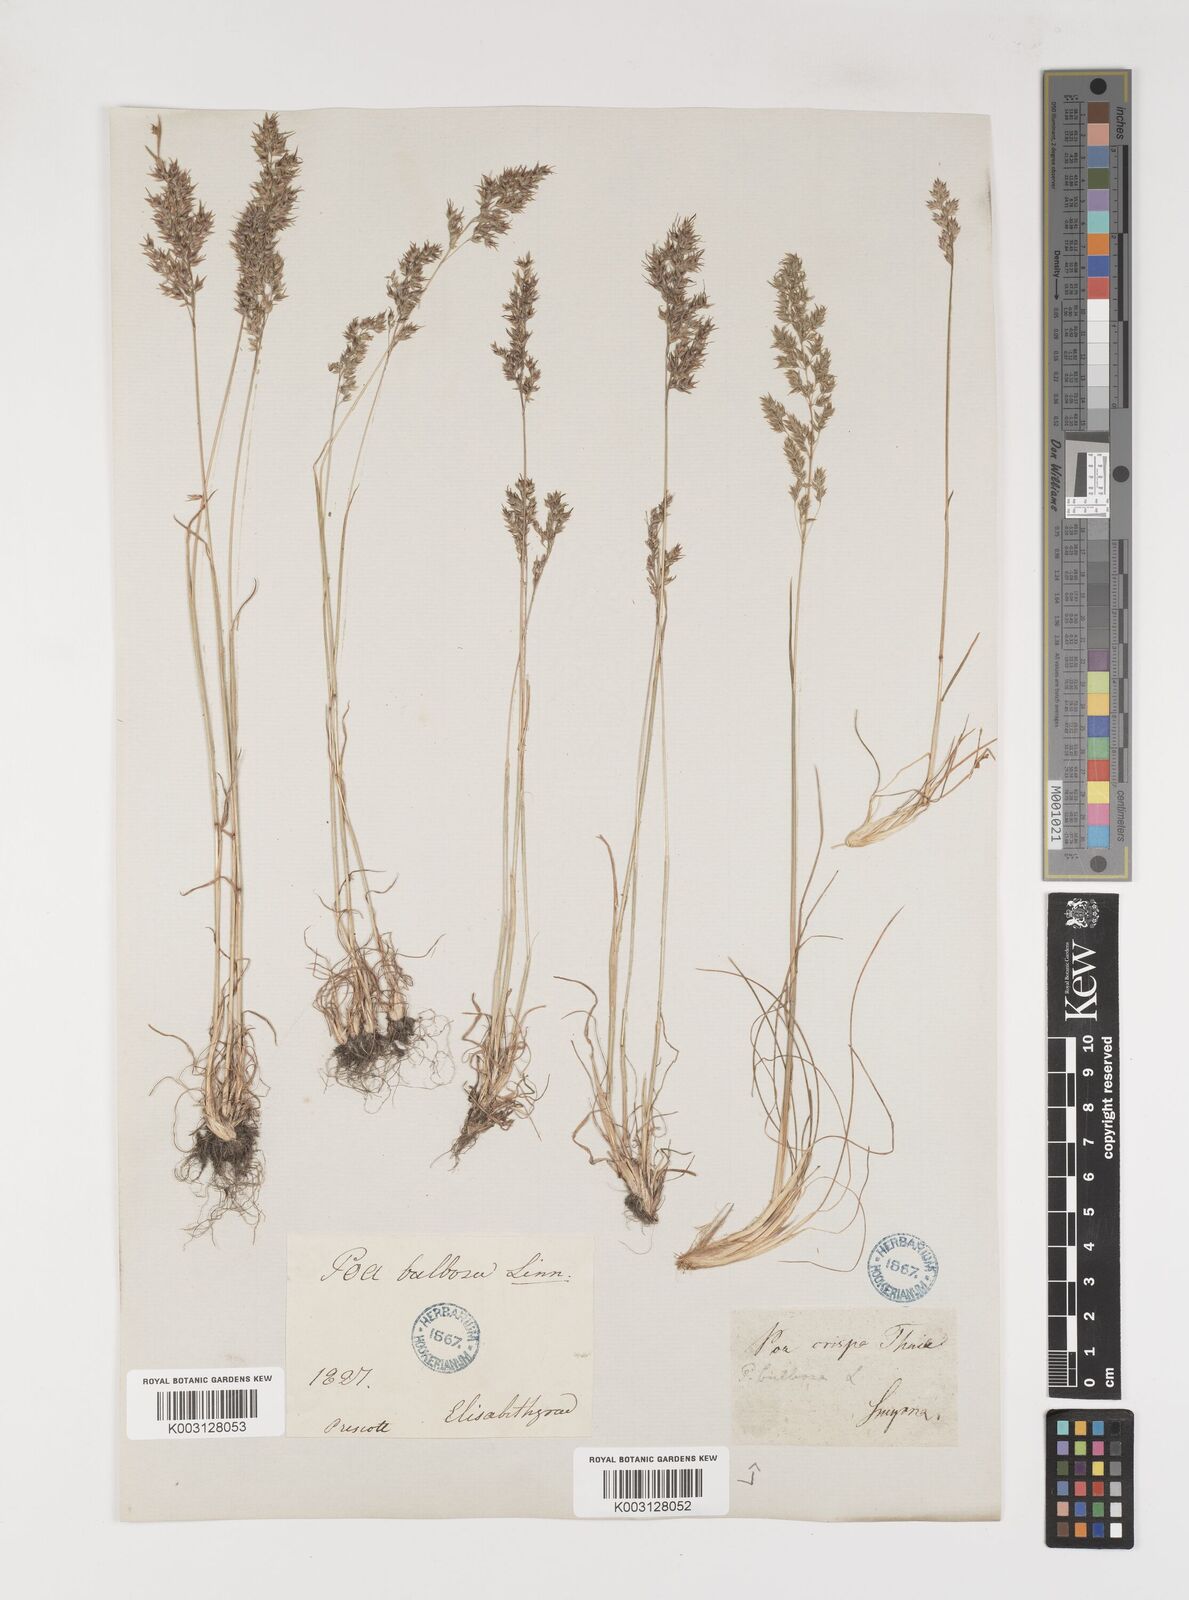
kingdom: Plantae
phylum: Tracheophyta
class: Liliopsida
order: Poales
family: Poaceae
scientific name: Poaceae
